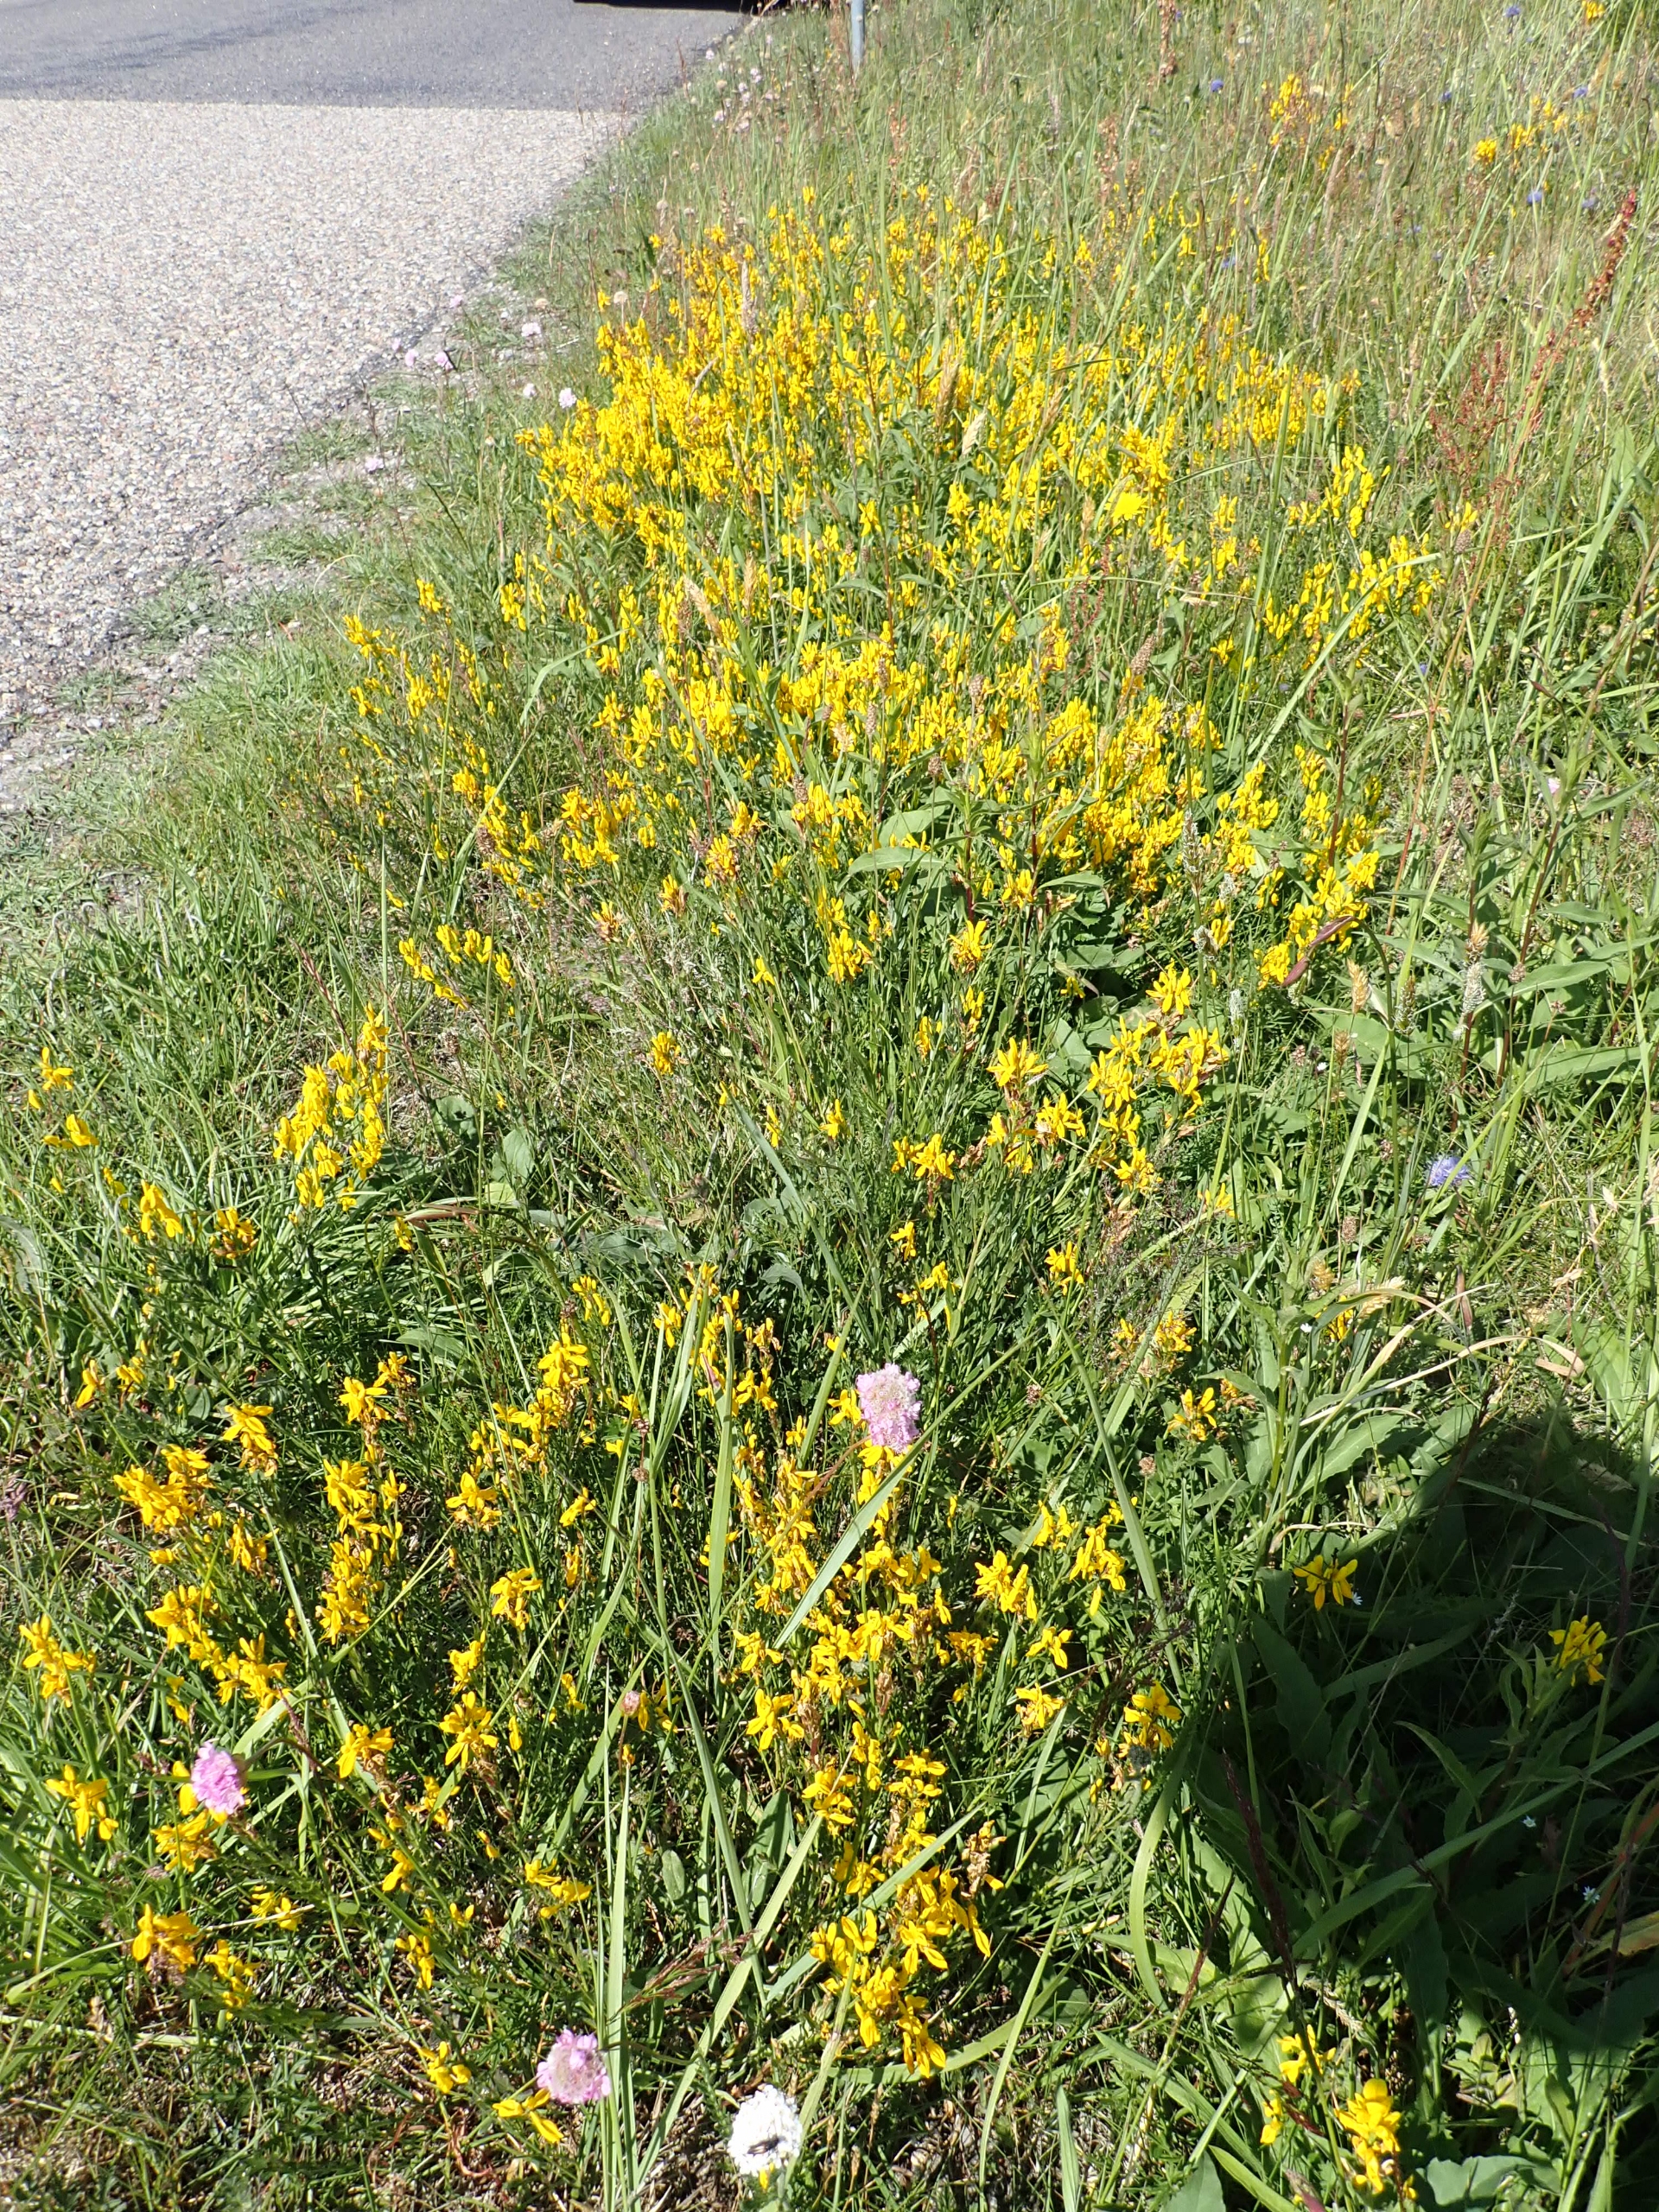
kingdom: Plantae
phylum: Tracheophyta
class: Magnoliopsida
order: Fabales
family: Fabaceae
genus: Genista
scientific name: Genista tinctoria
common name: Farve-visse
